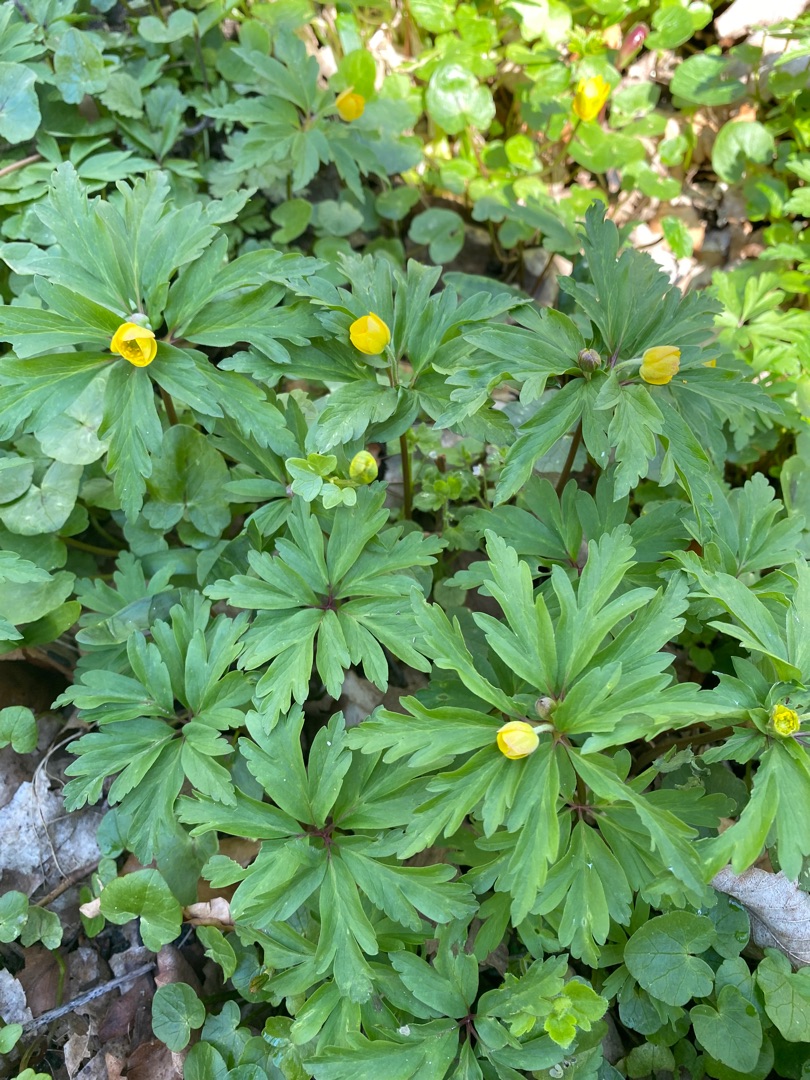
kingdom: Plantae
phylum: Tracheophyta
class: Magnoliopsida
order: Ranunculales
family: Ranunculaceae
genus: Anemone
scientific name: Anemone ranunculoides
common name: Gul anemone
